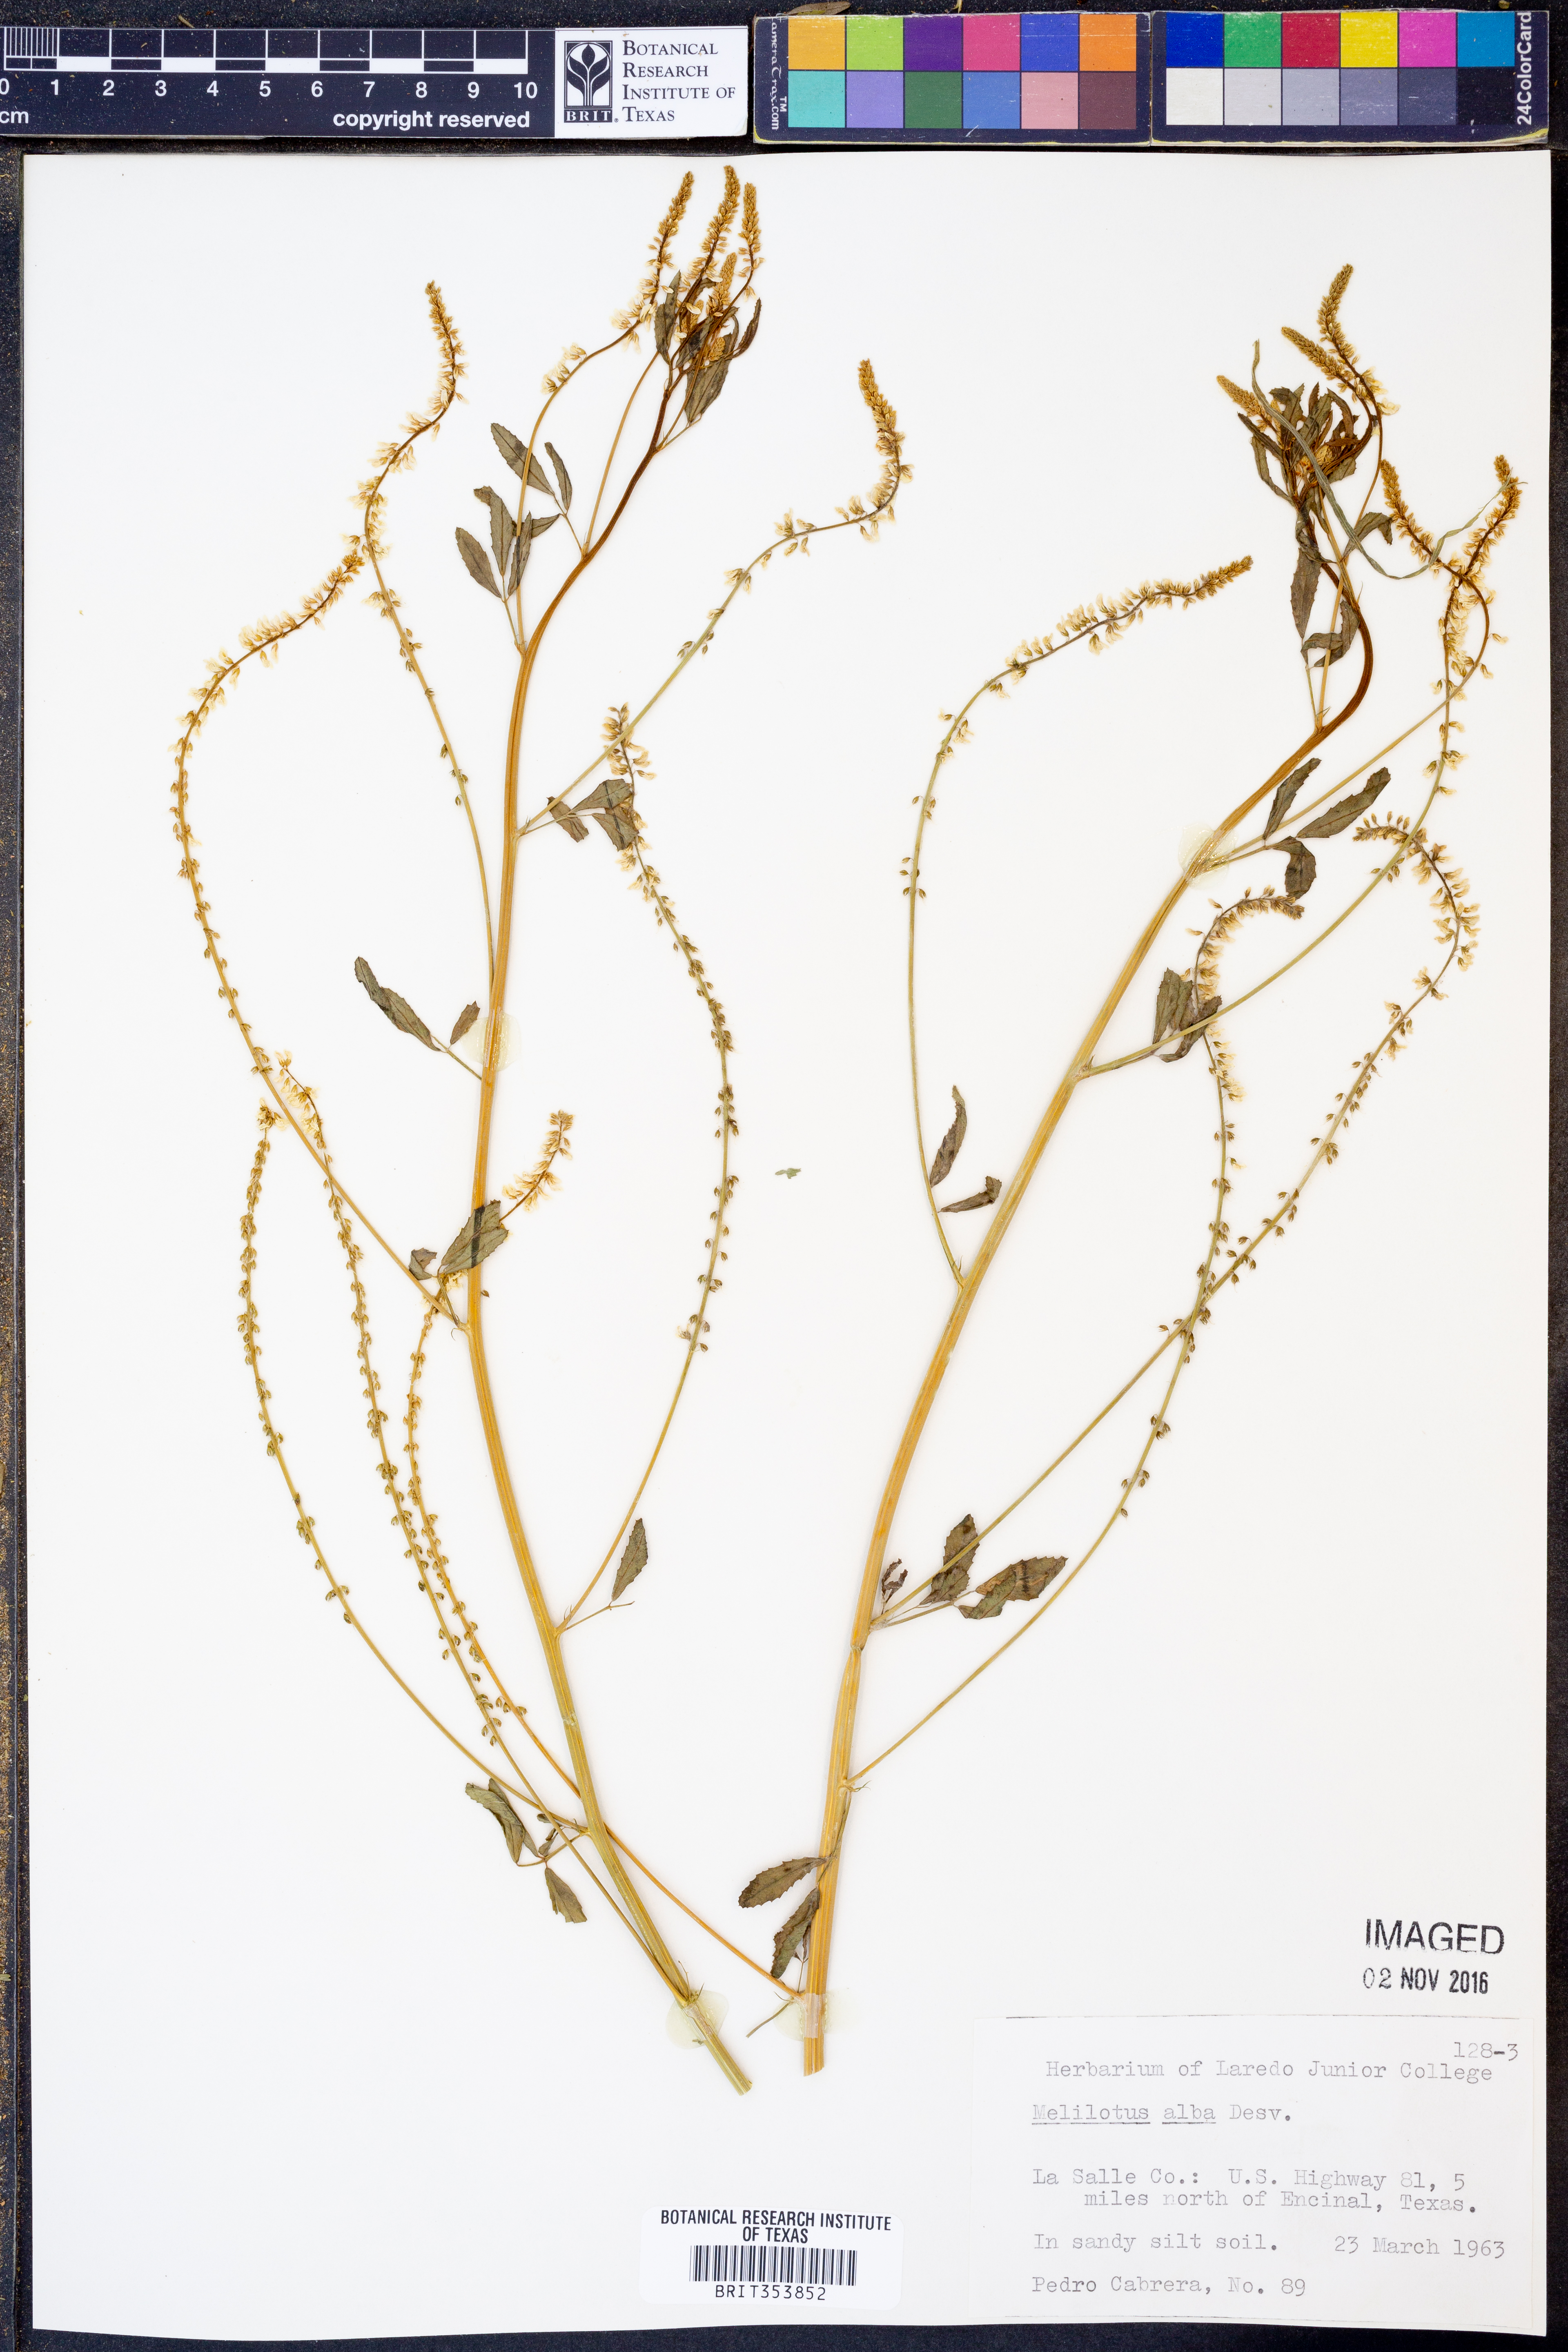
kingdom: Plantae
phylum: Tracheophyta
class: Magnoliopsida
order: Fabales
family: Fabaceae
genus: Melilotus
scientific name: Melilotus albus
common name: White melilot
